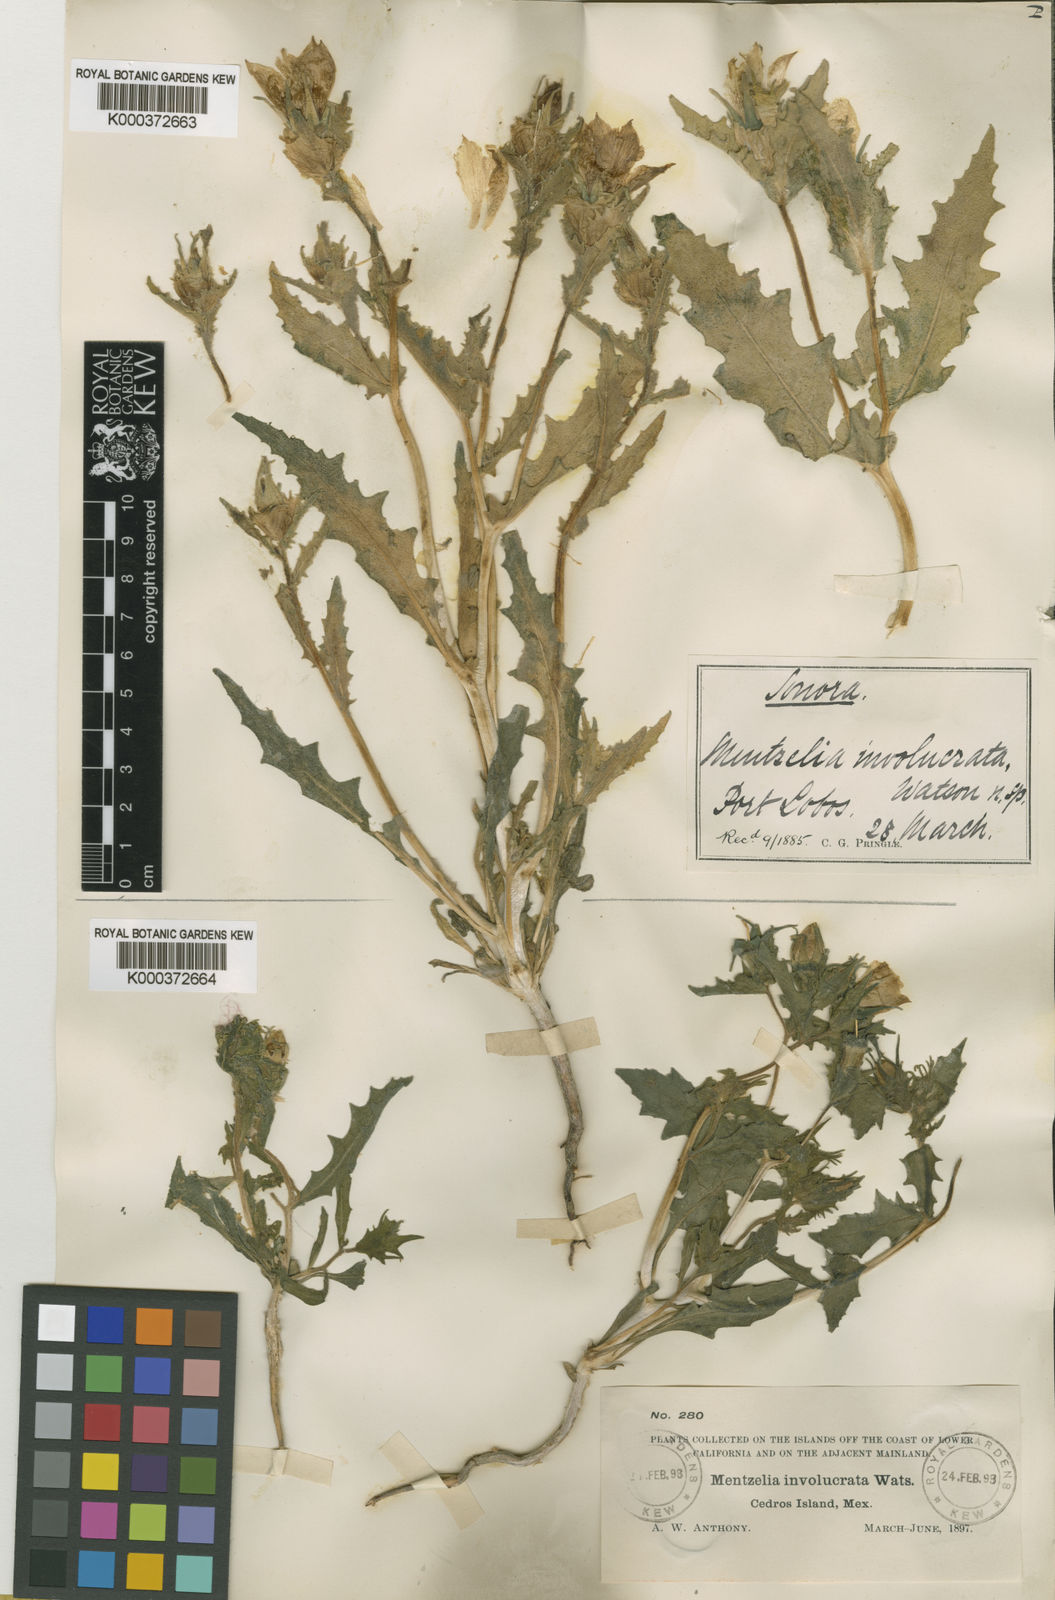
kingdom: Plantae
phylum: Tracheophyta
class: Magnoliopsida
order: Cornales
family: Loasaceae
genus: Mentzelia
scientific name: Mentzelia involucrata
